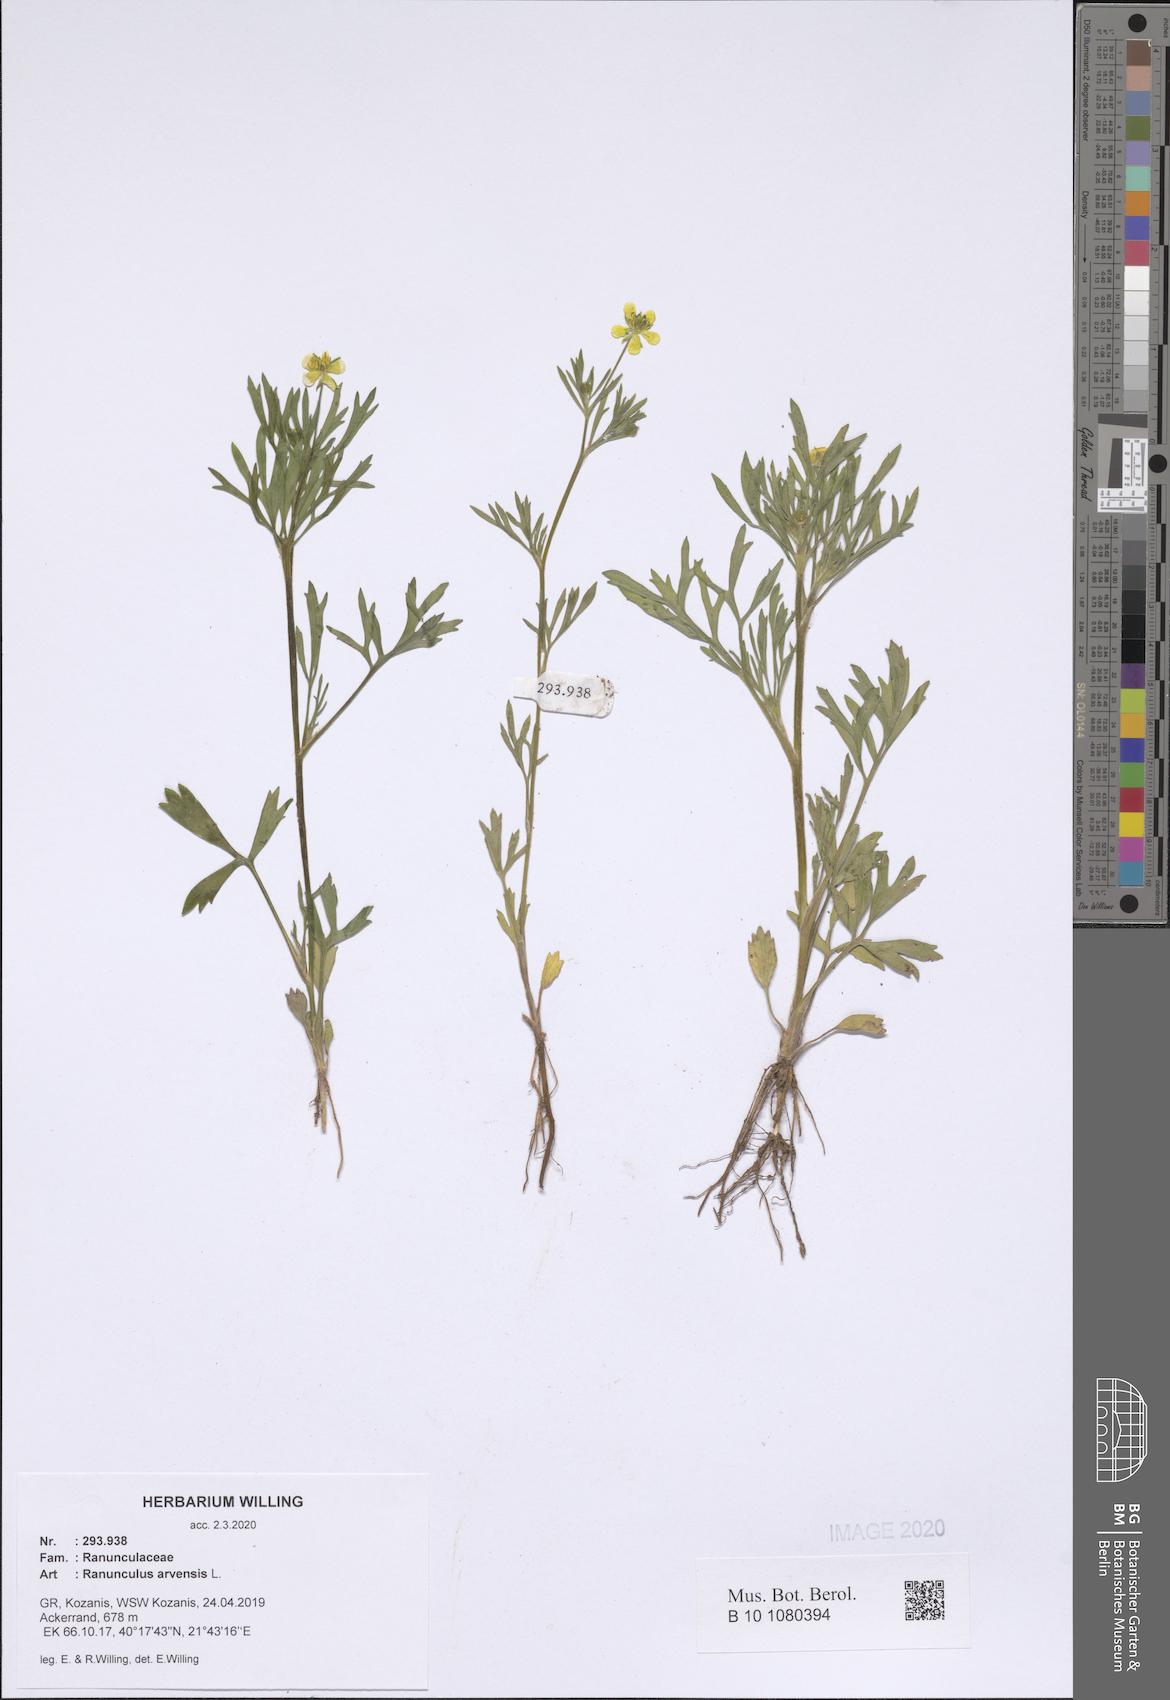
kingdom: Plantae
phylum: Tracheophyta
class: Magnoliopsida
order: Ranunculales
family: Ranunculaceae
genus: Ranunculus
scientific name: Ranunculus arvensis
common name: Corn buttercup
